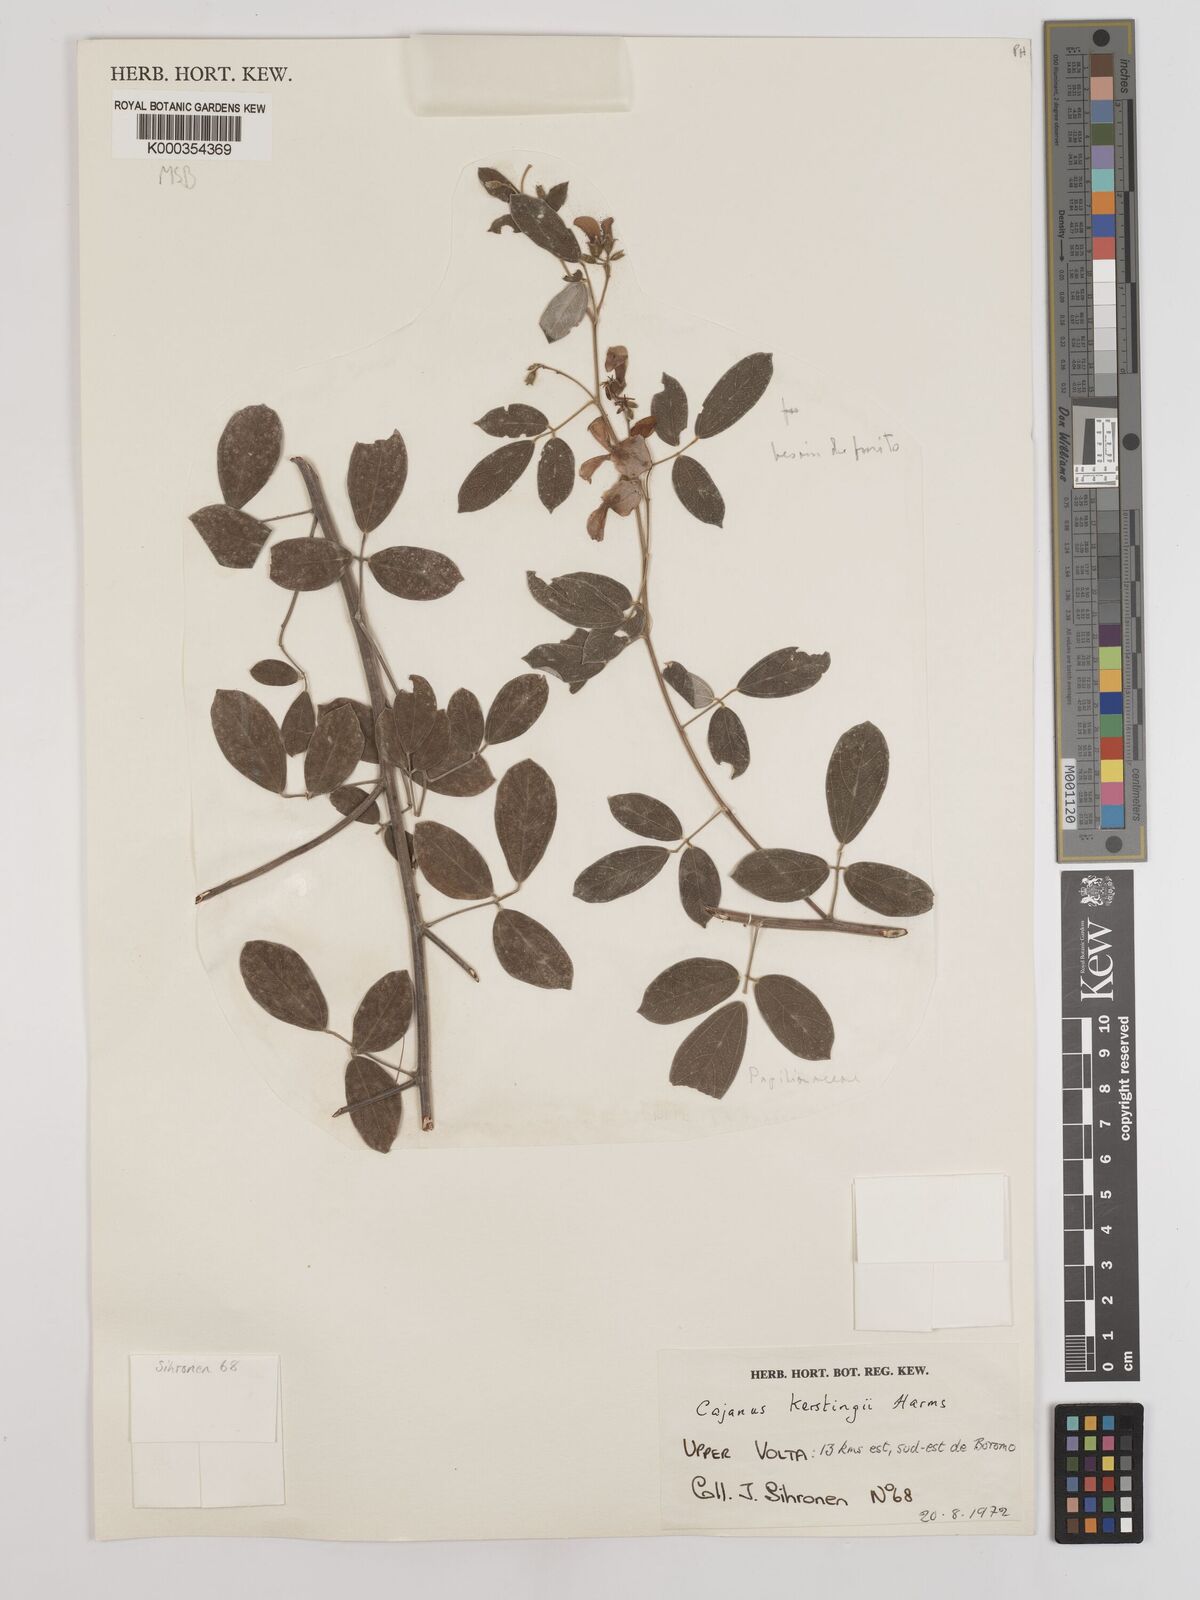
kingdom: Plantae
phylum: Tracheophyta
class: Magnoliopsida
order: Fabales
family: Fabaceae
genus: Cajanus
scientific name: Cajanus kerstingii
